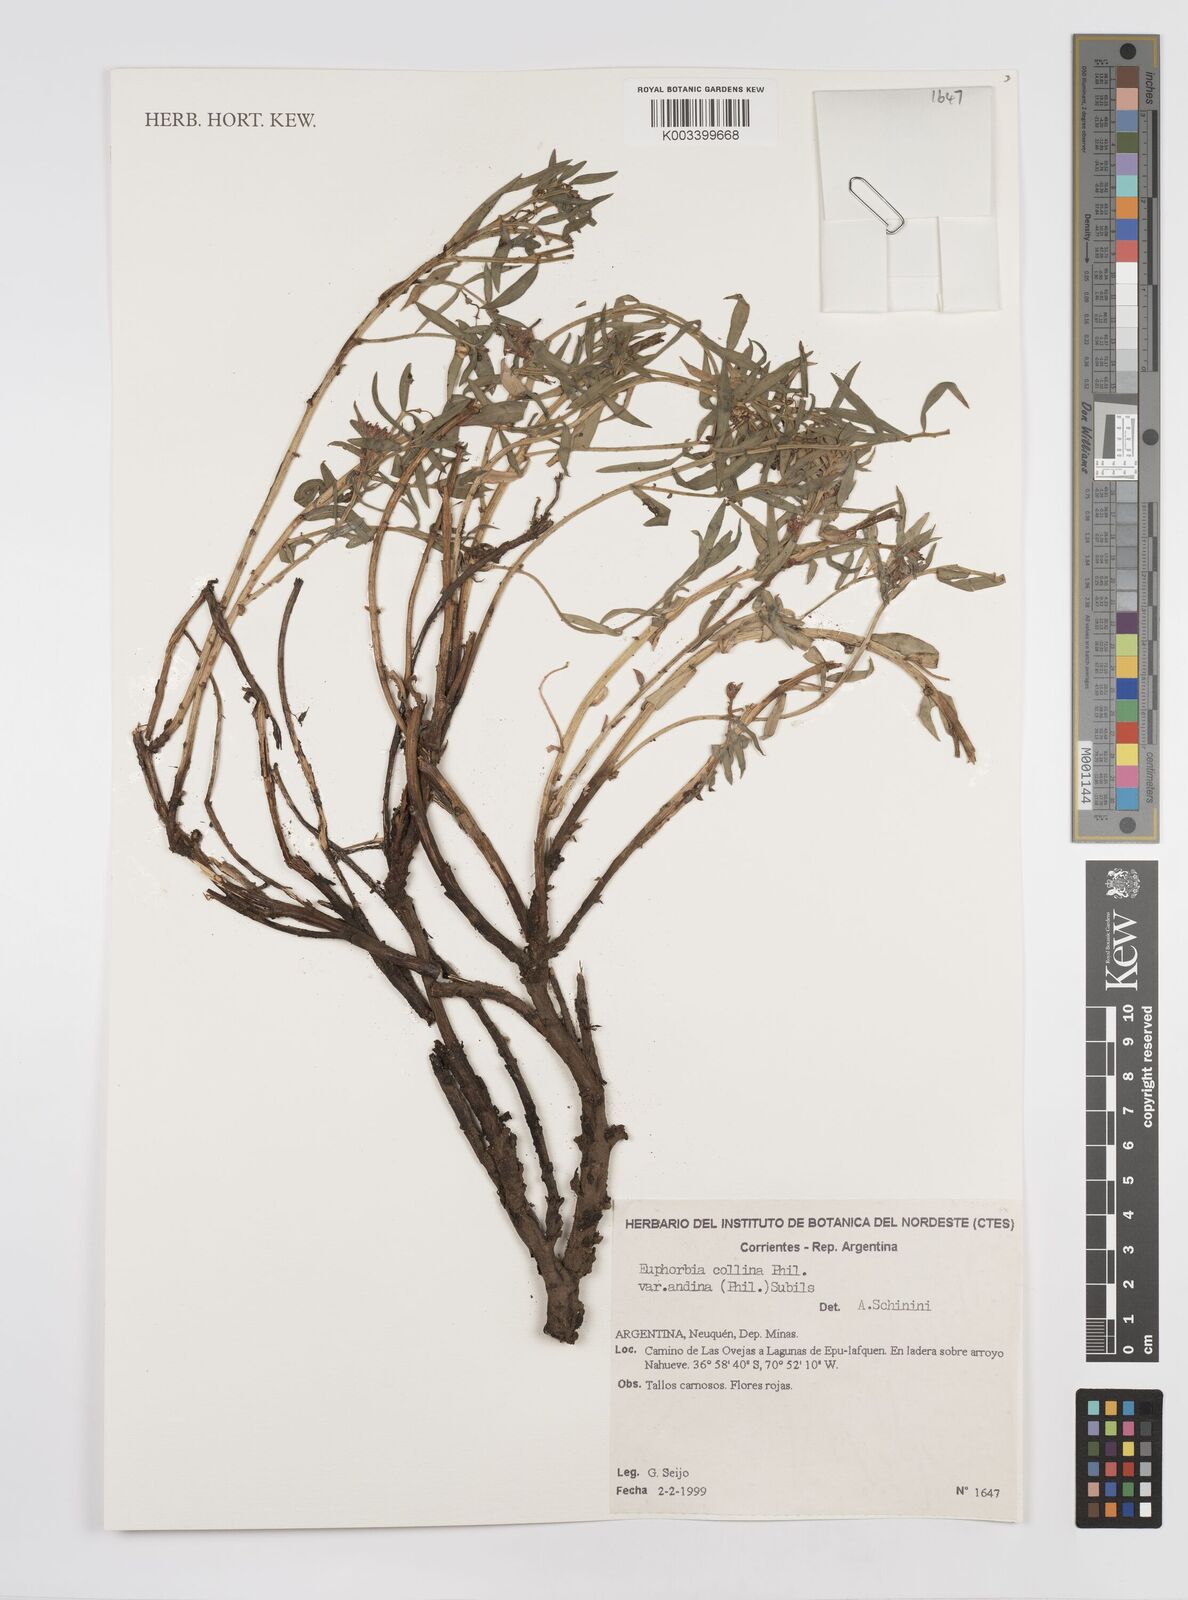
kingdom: Plantae
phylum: Tracheophyta
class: Magnoliopsida
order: Malpighiales
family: Euphorbiaceae
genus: Euphorbia
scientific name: Euphorbia
